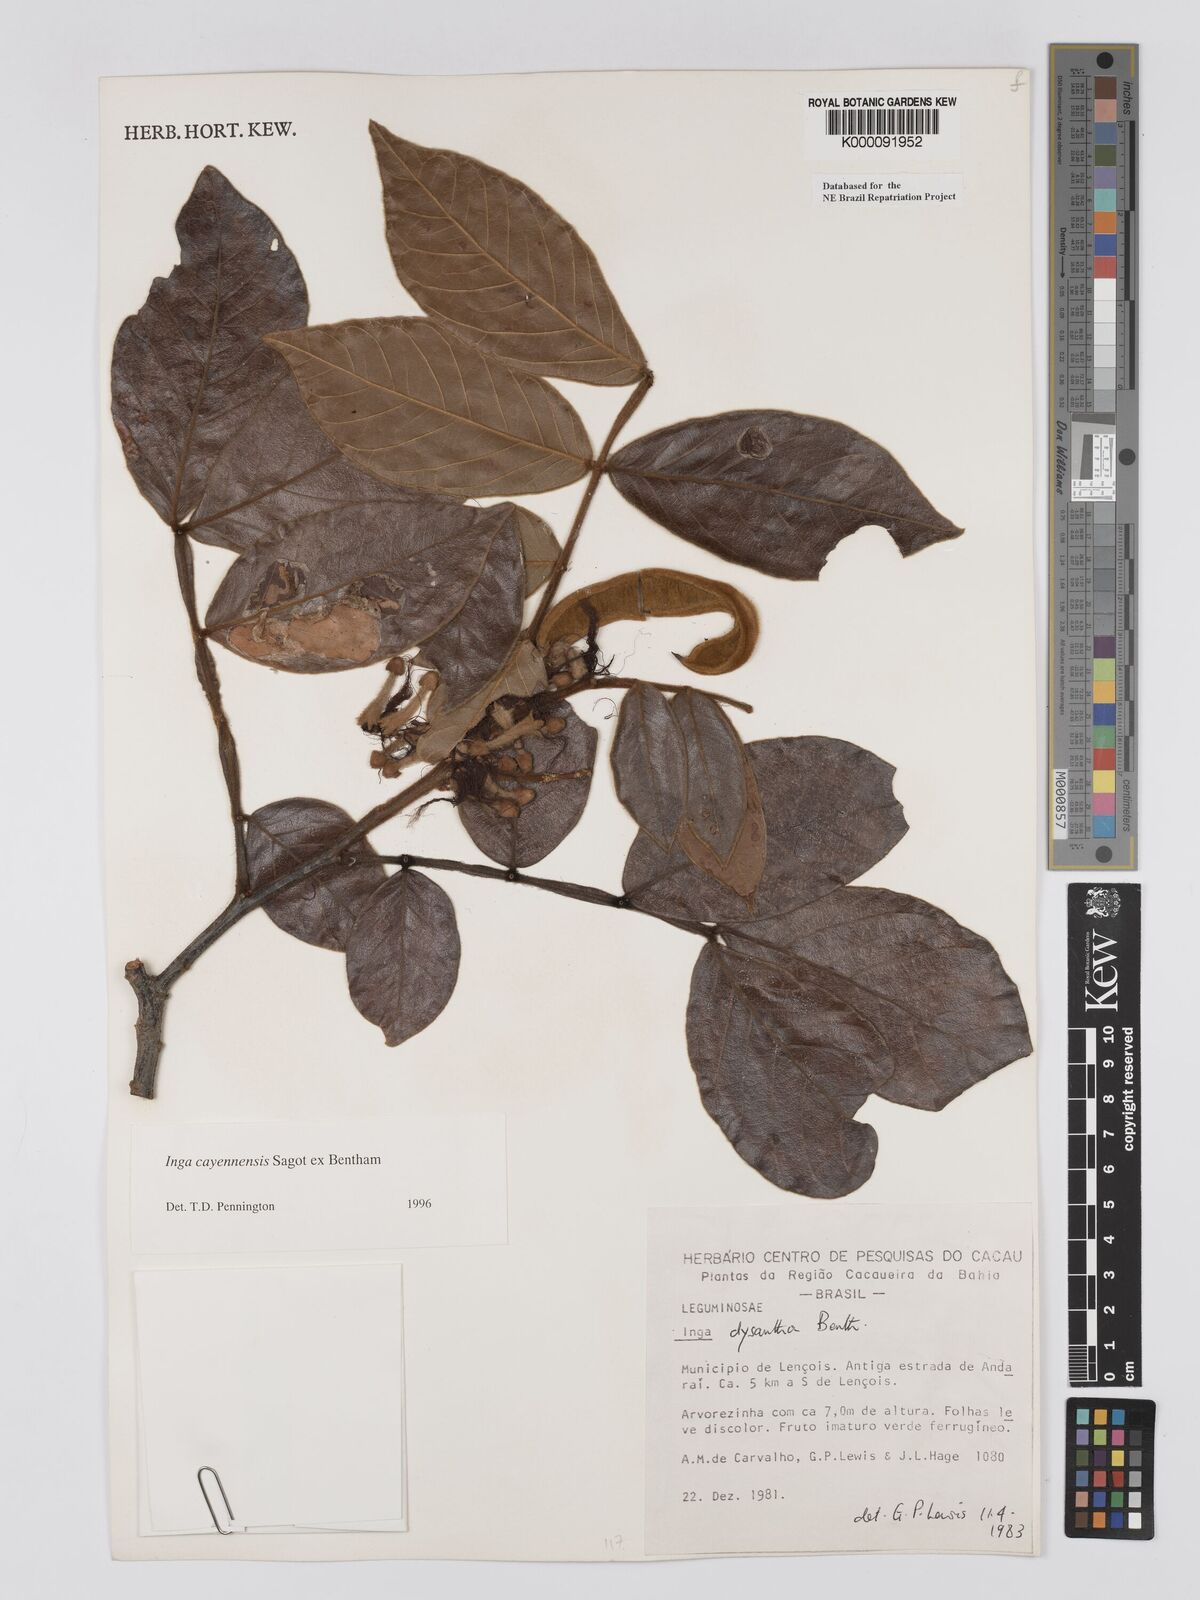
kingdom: Plantae
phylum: Tracheophyta
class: Magnoliopsida
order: Fabales
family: Fabaceae
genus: Inga
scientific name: Inga
